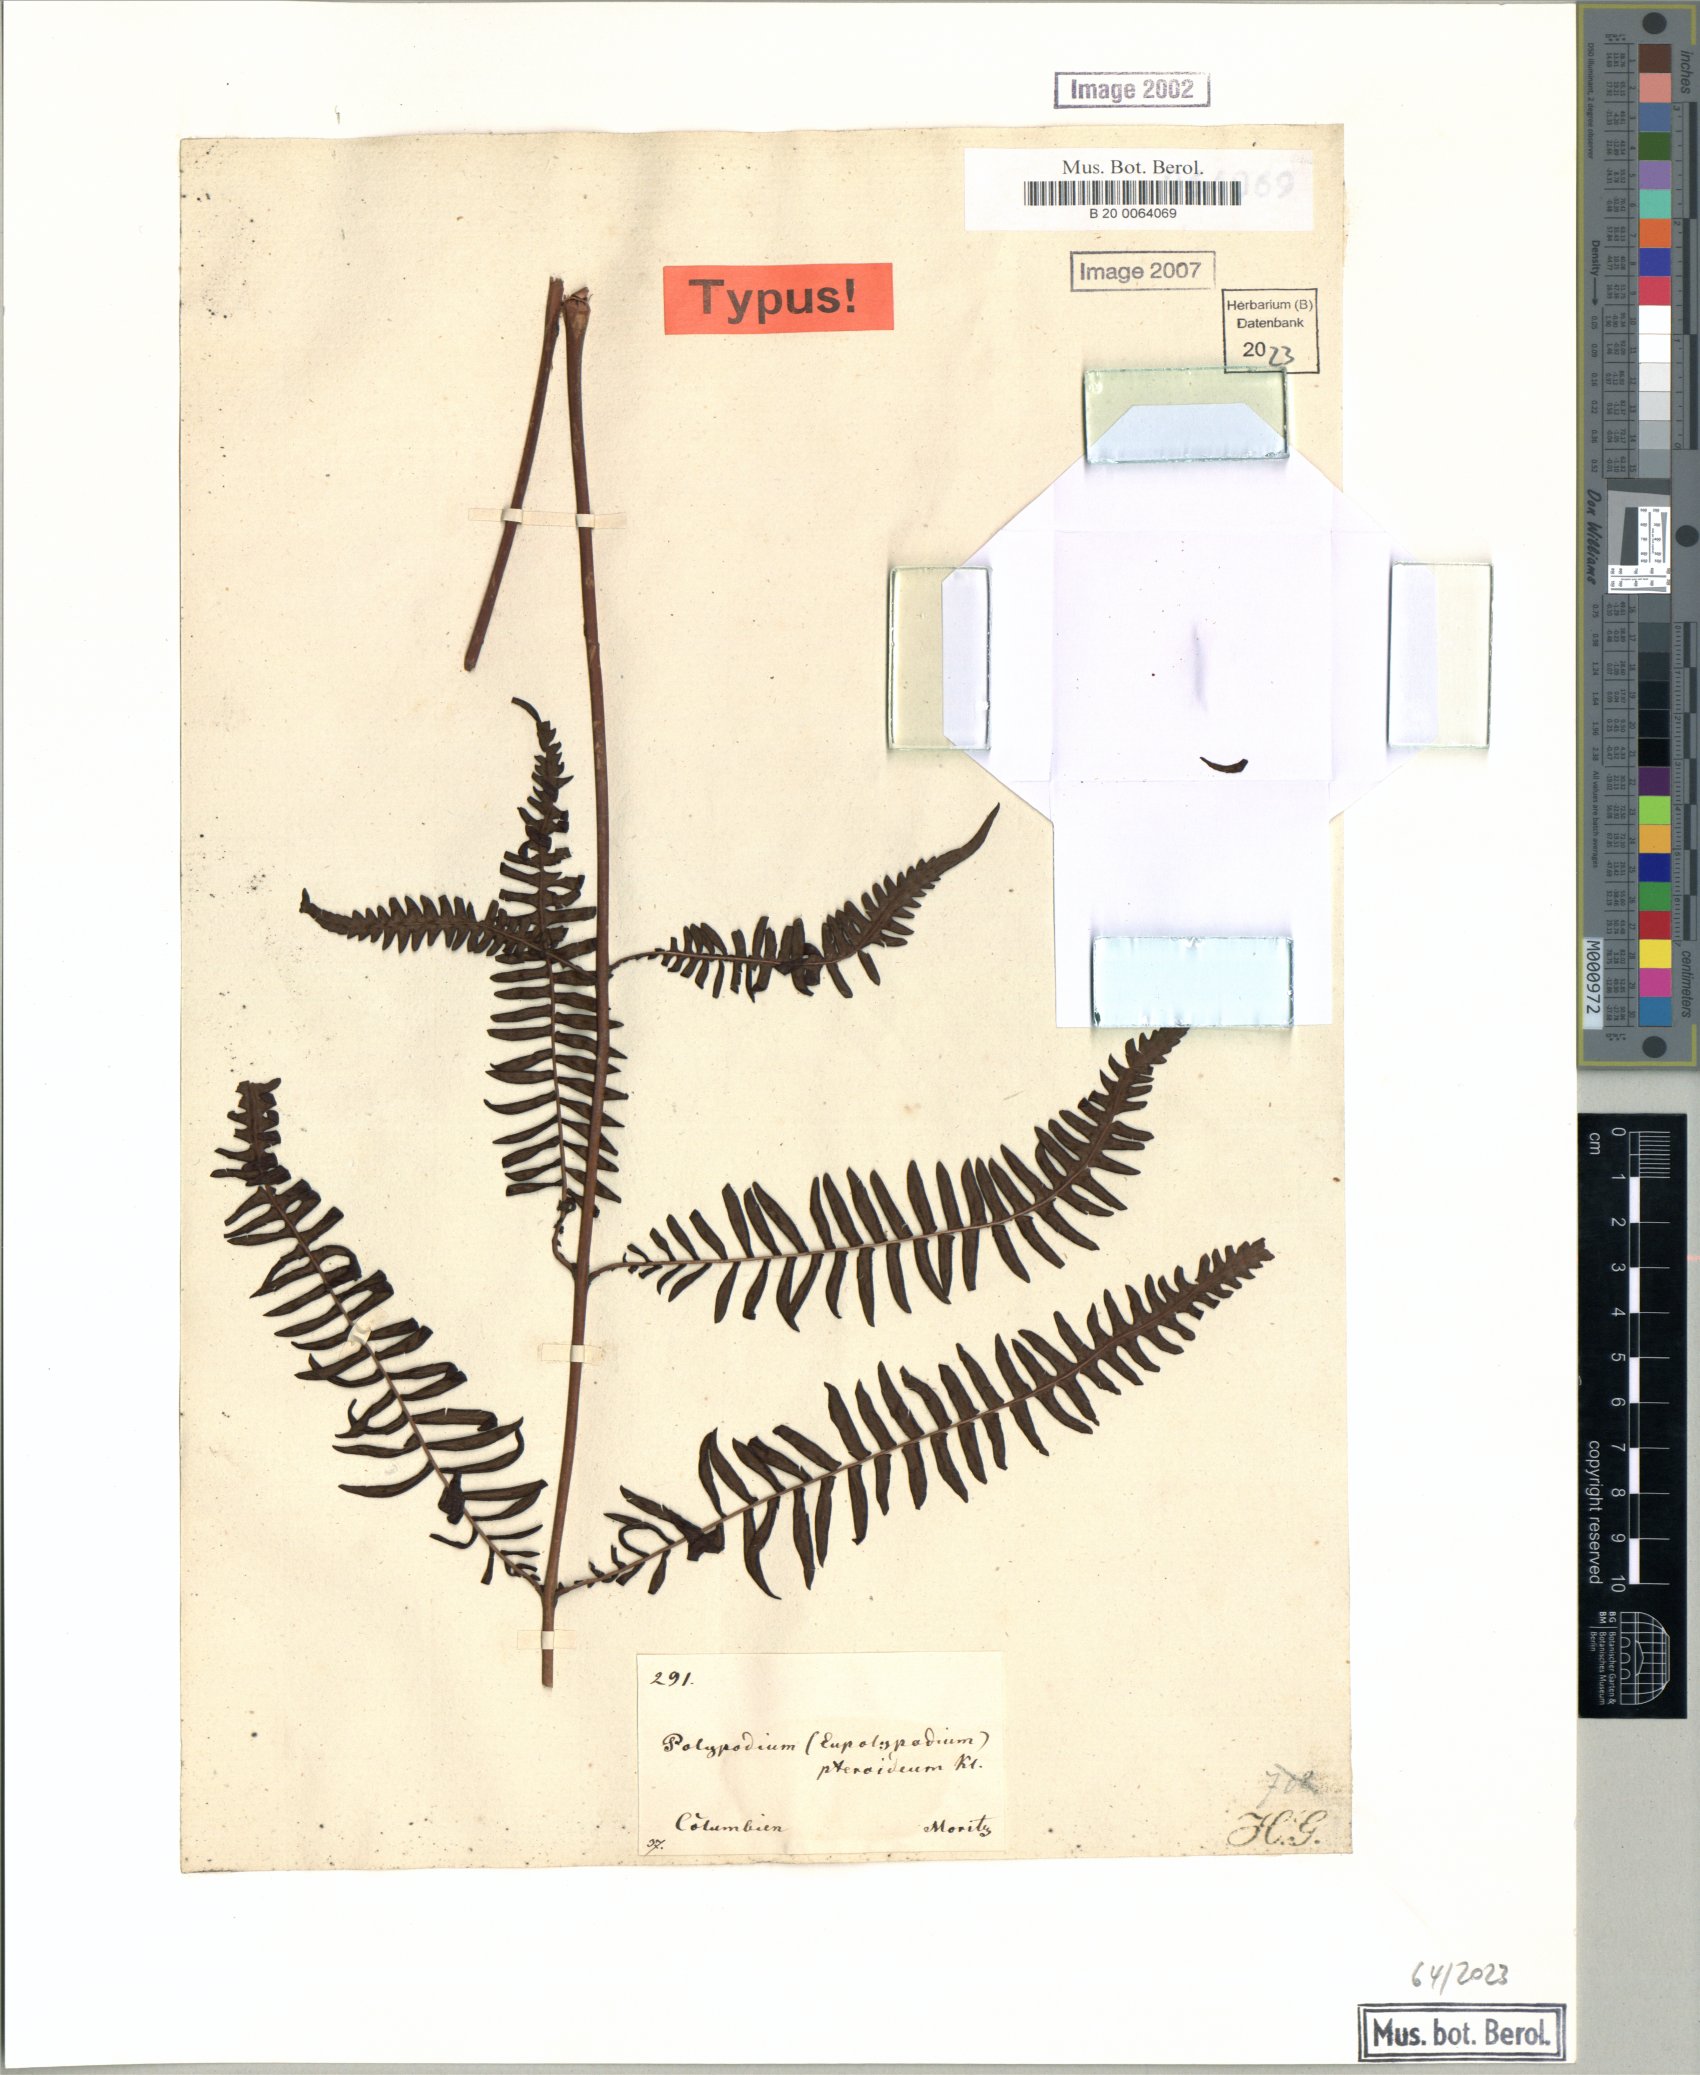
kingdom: Plantae
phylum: Tracheophyta
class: Polypodiopsida
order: Polypodiales
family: Thelypteridaceae
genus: Amauropelta
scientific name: Amauropelta pteroidea
